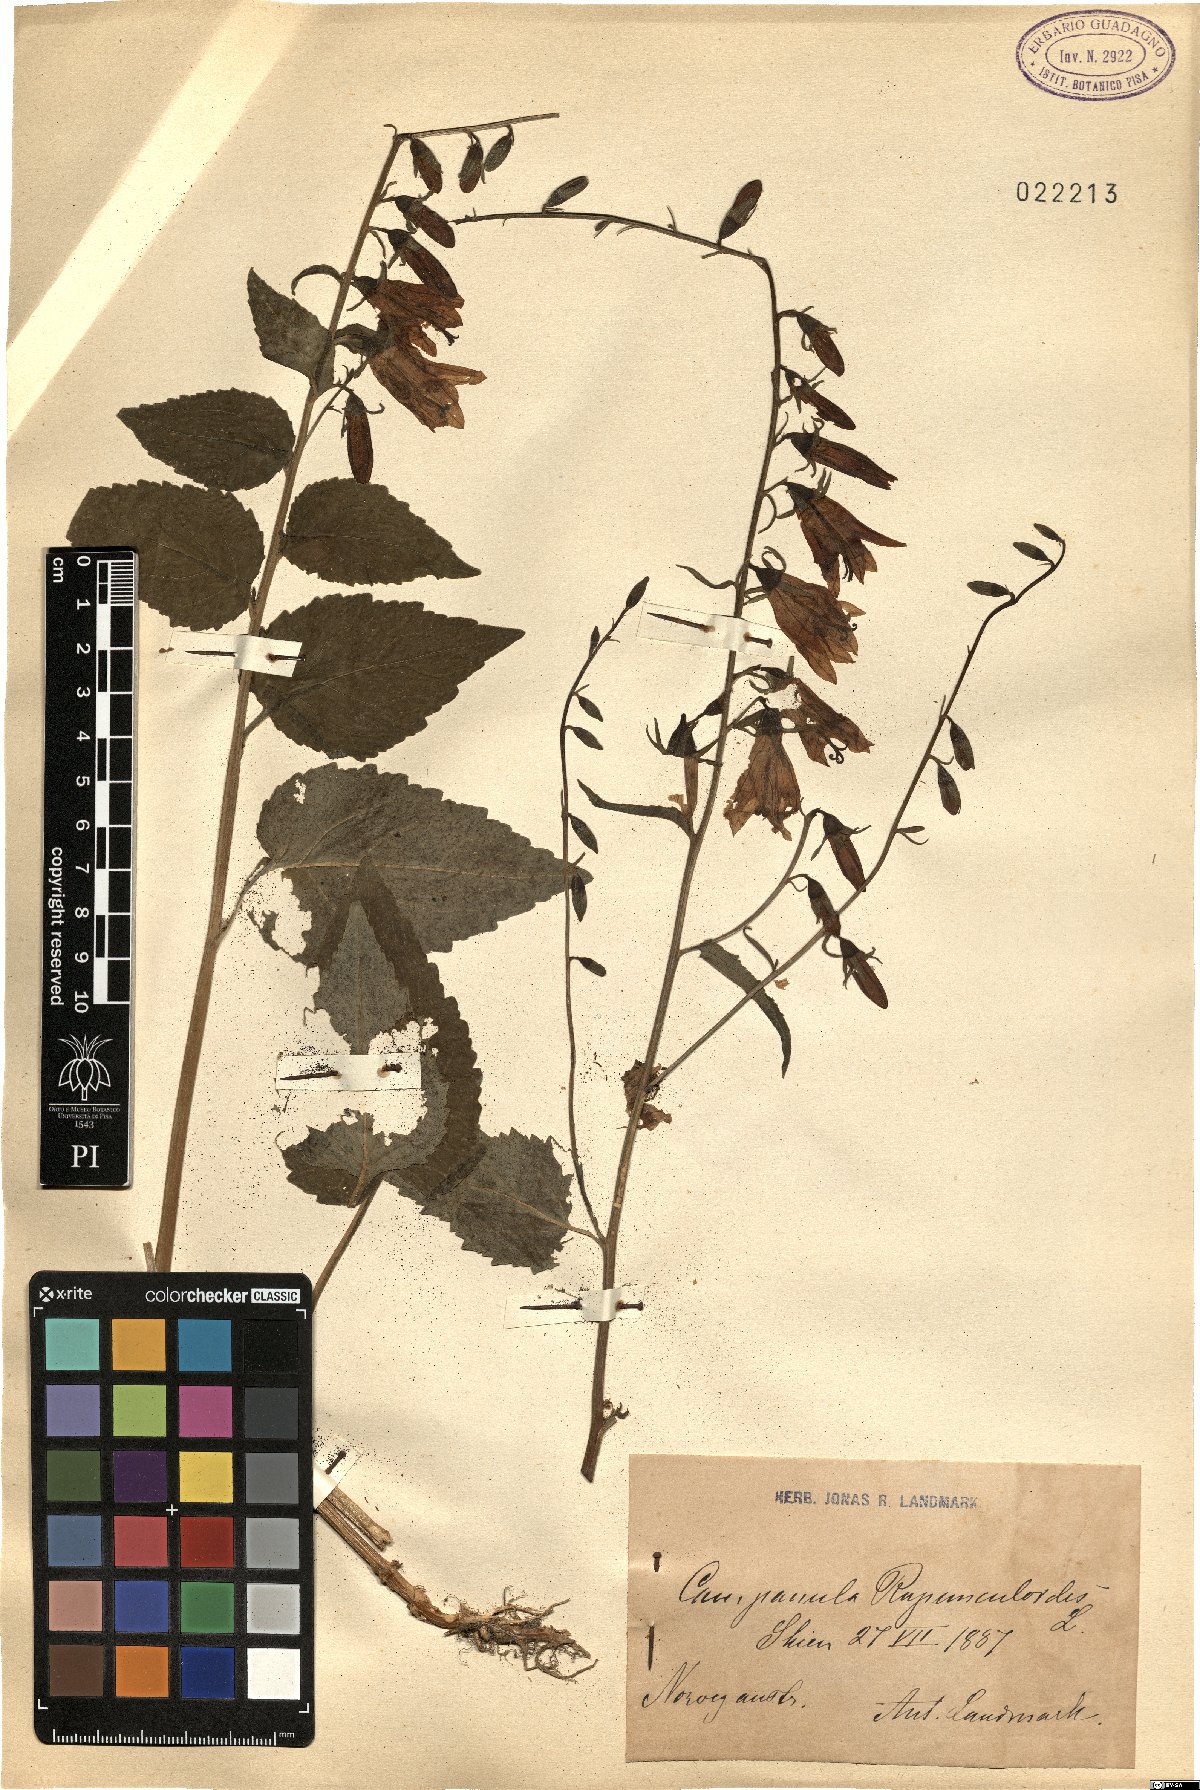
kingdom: Plantae
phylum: Tracheophyta
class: Magnoliopsida
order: Asterales
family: Campanulaceae
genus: Campanula
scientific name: Campanula rapunculoides
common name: Creeping bellflower
